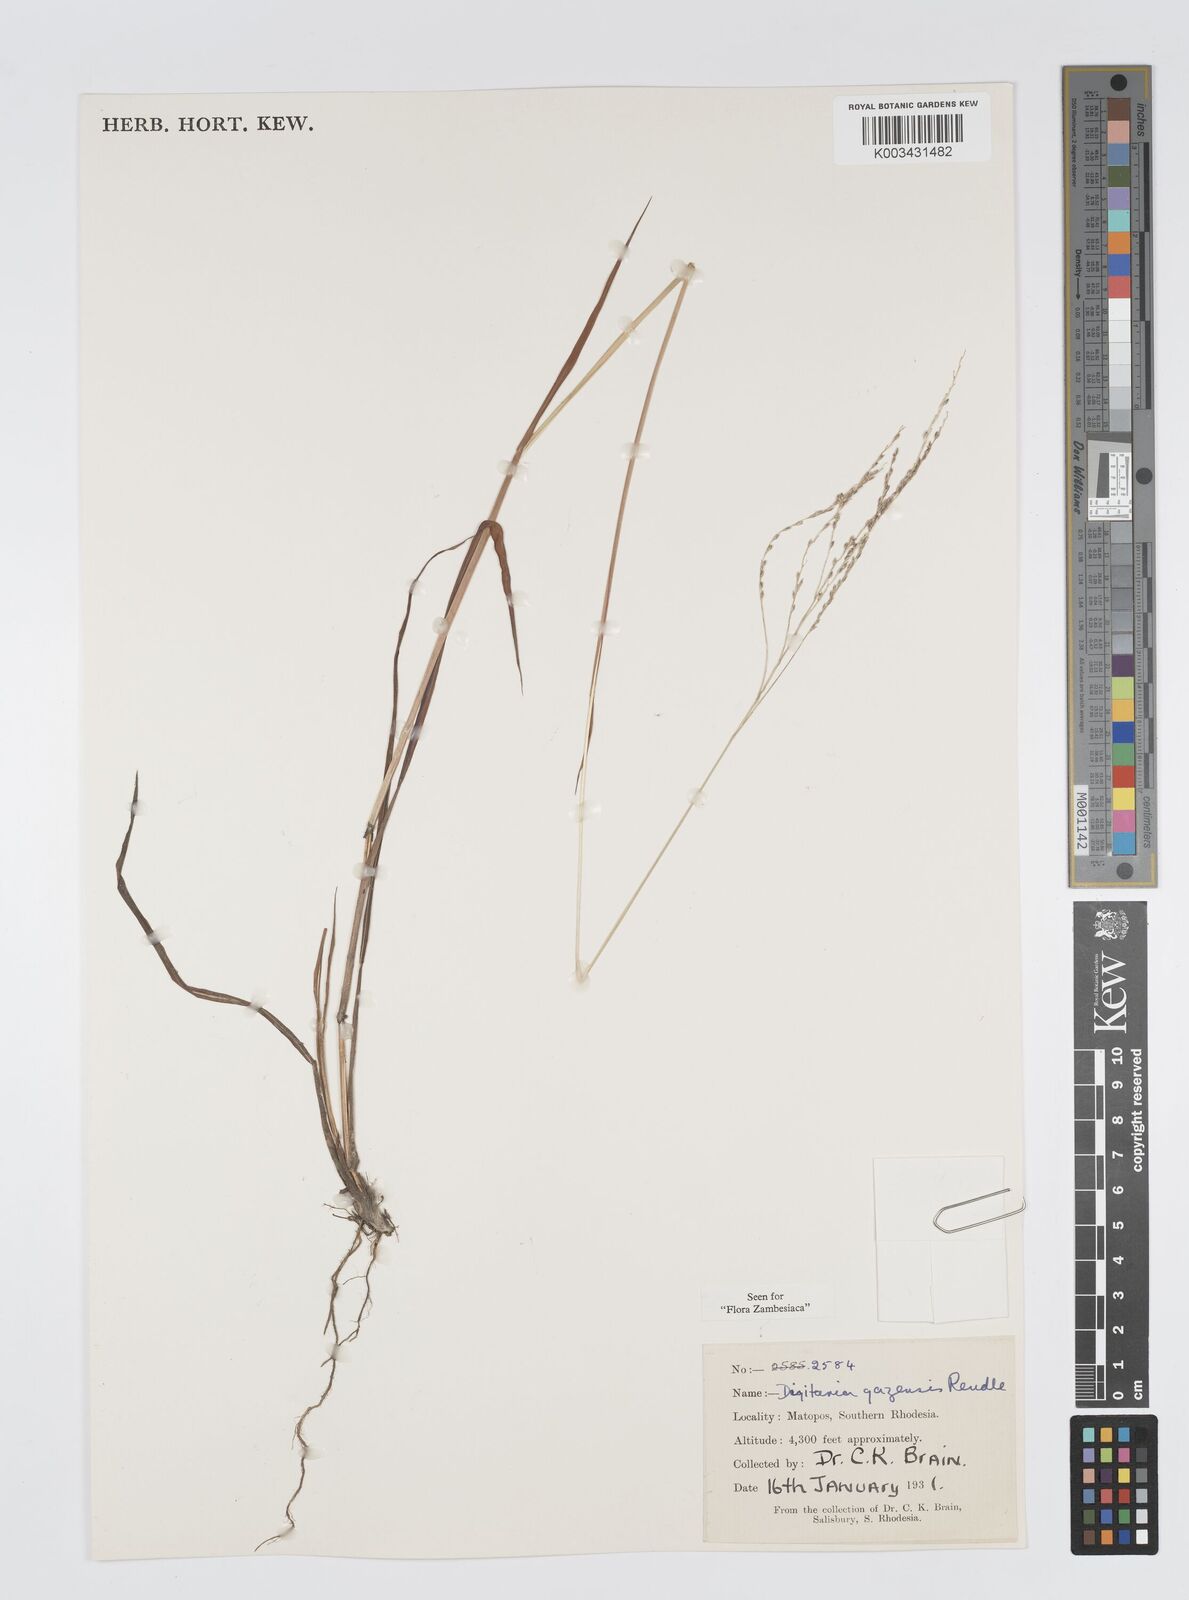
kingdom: Plantae
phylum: Tracheophyta
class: Liliopsida
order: Poales
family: Poaceae
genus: Digitaria
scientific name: Digitaria gazensis
